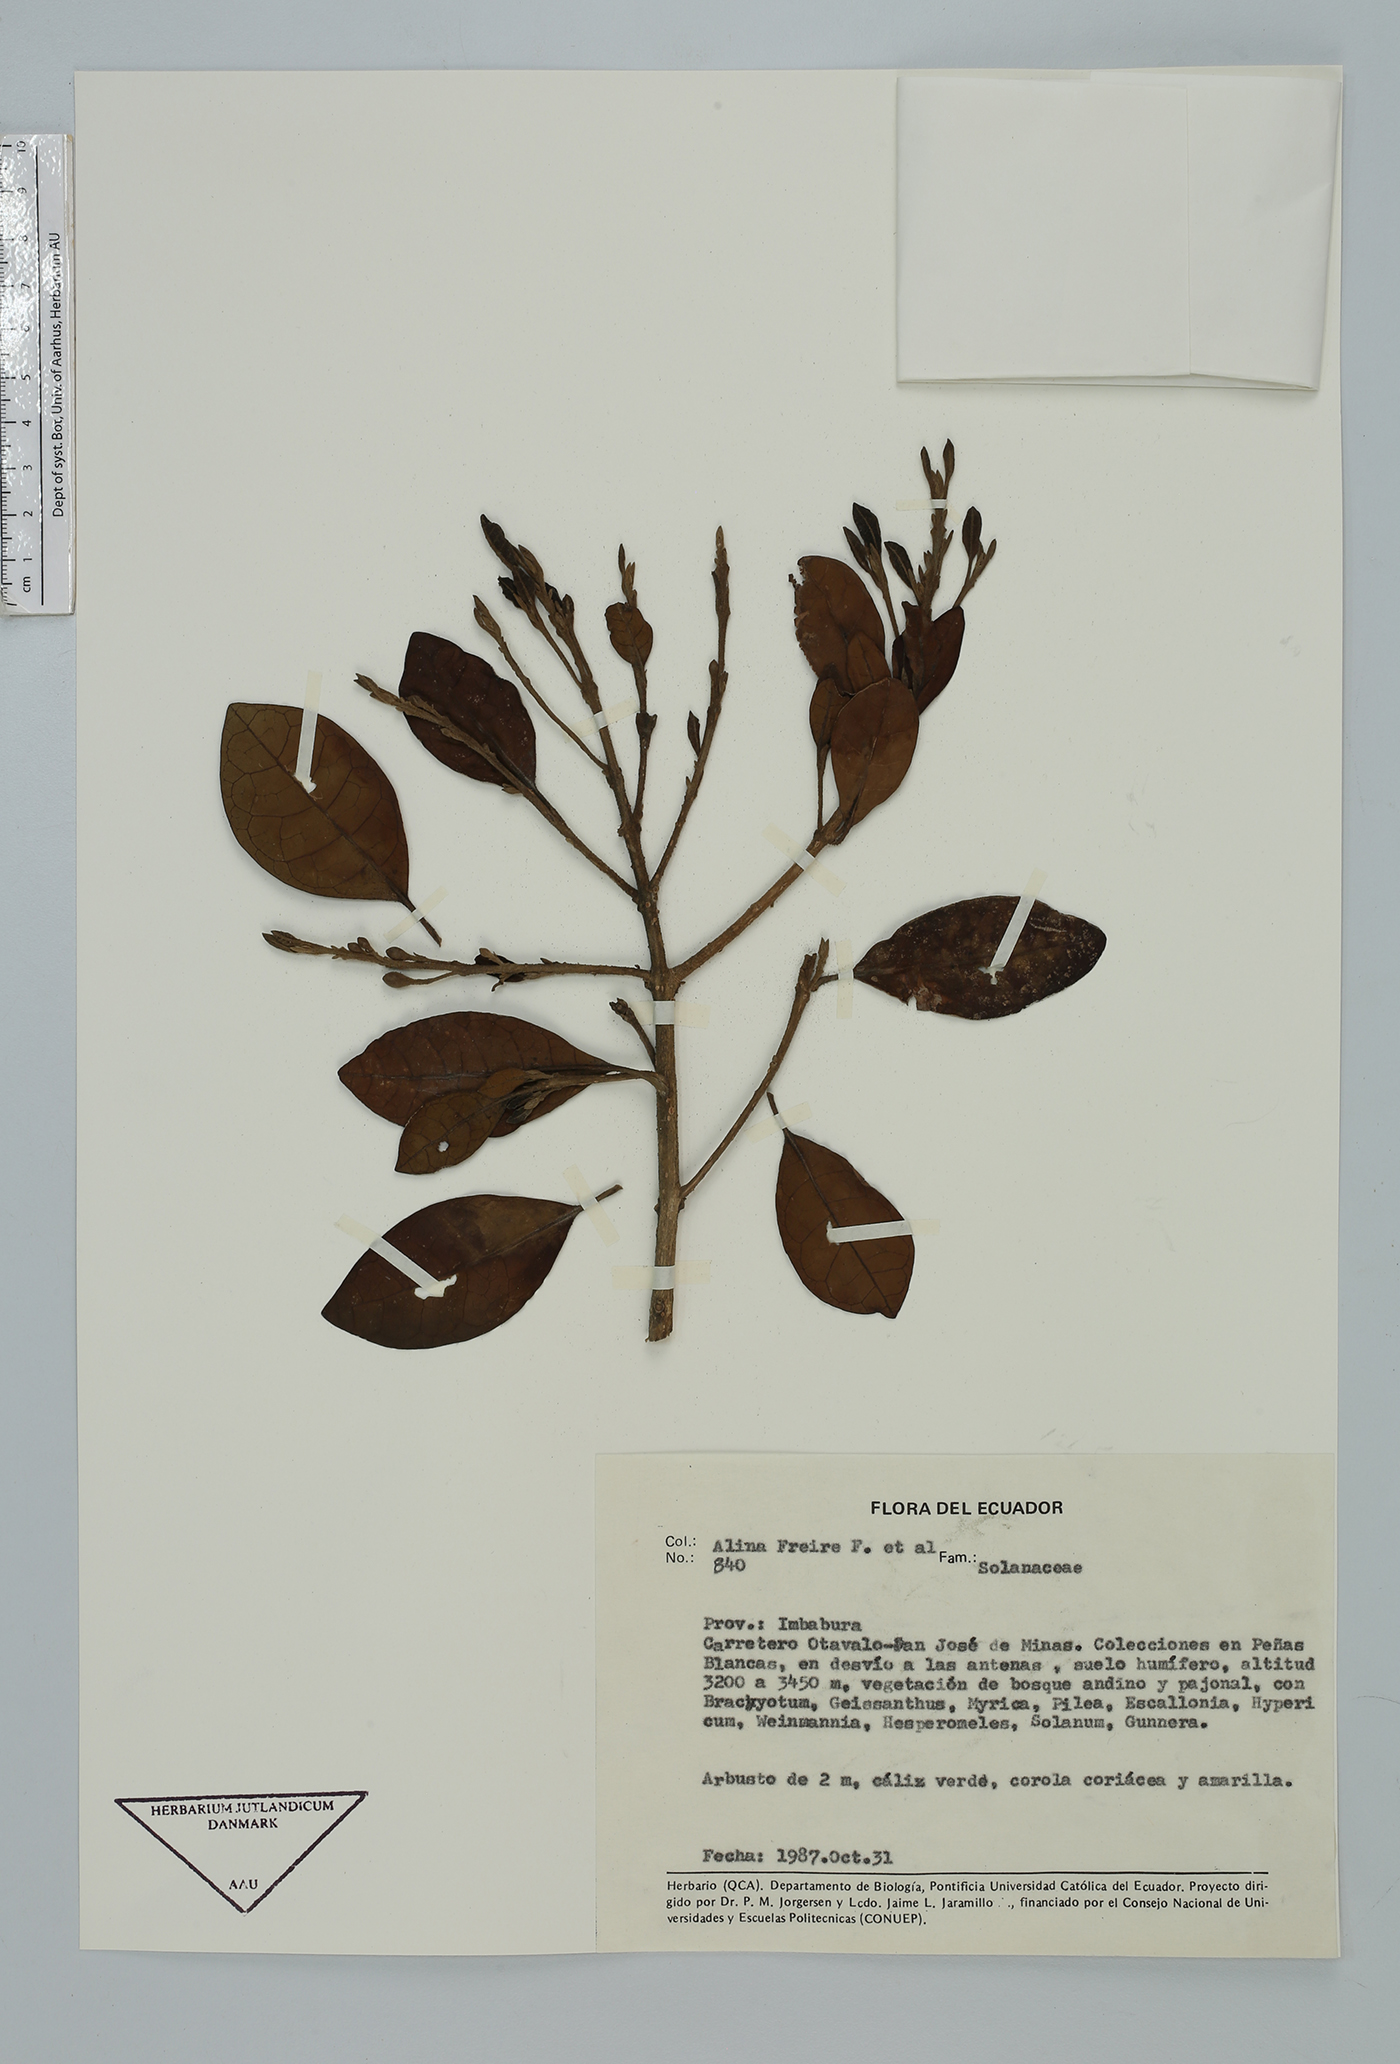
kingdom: Plantae
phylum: Tracheophyta
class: Magnoliopsida
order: Solanales
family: Solanaceae
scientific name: Solanaceae
